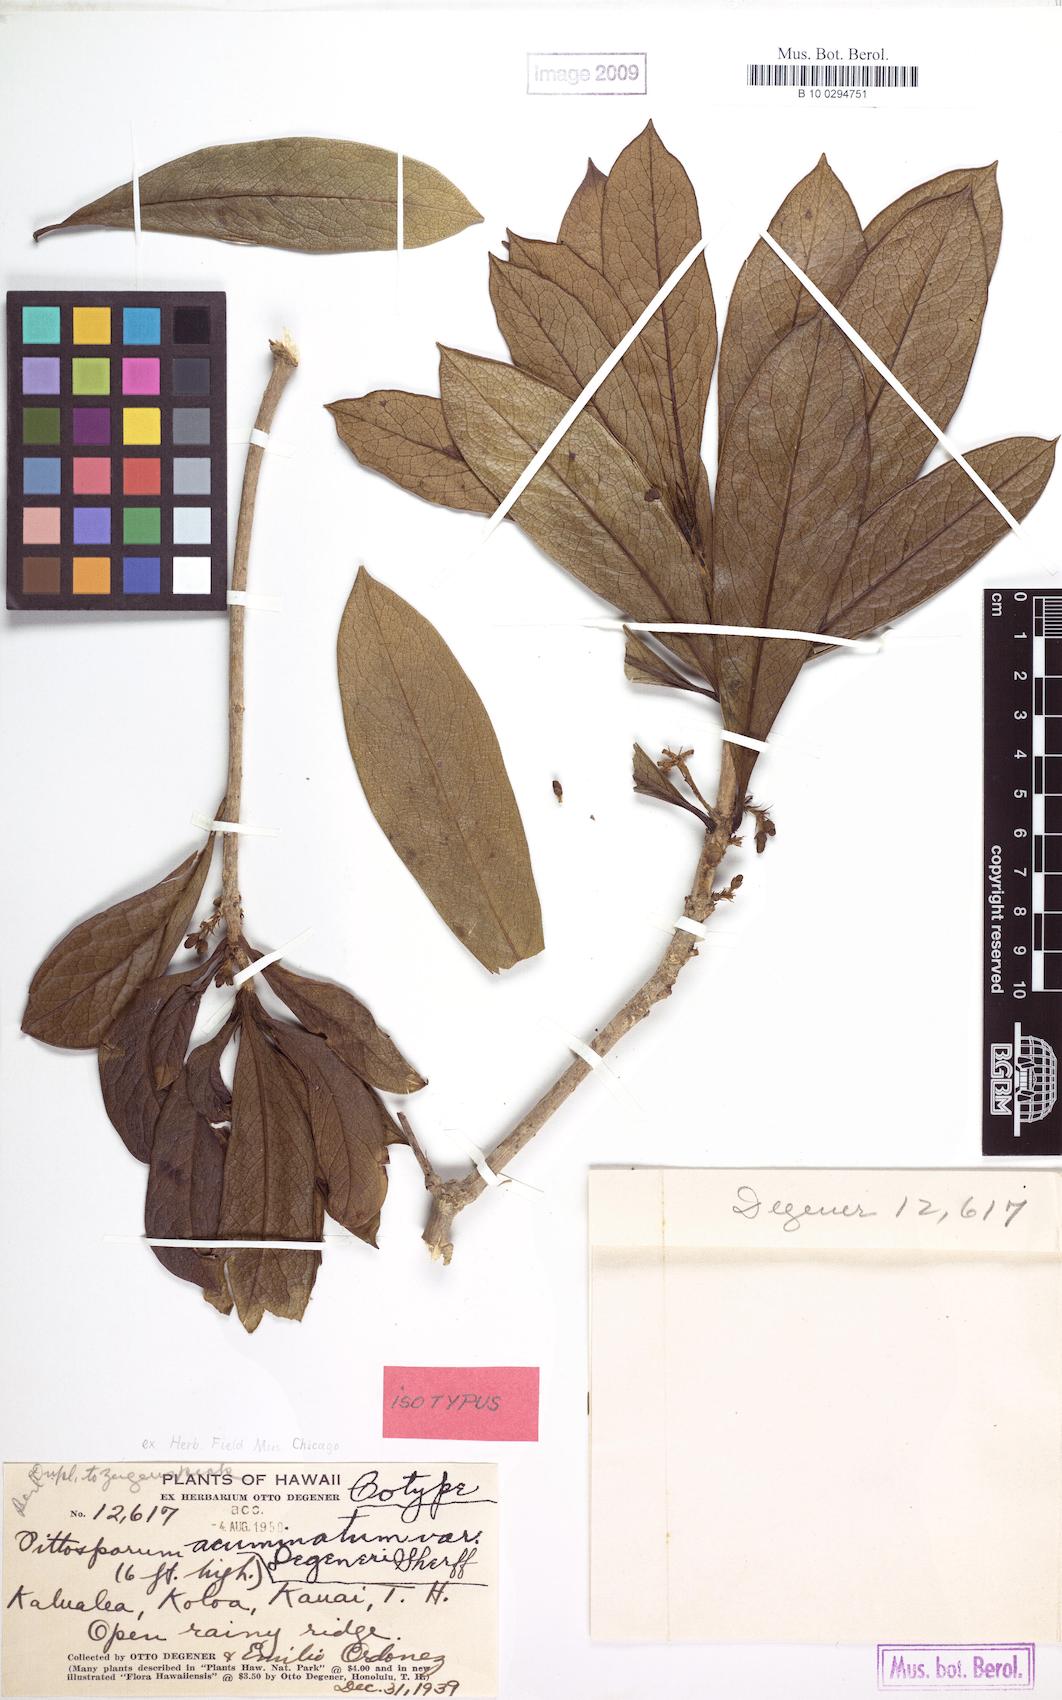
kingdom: Plantae
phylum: Tracheophyta
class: Magnoliopsida
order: Apiales
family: Pittosporaceae
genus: Pittosporum
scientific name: Pittosporum glabrum
